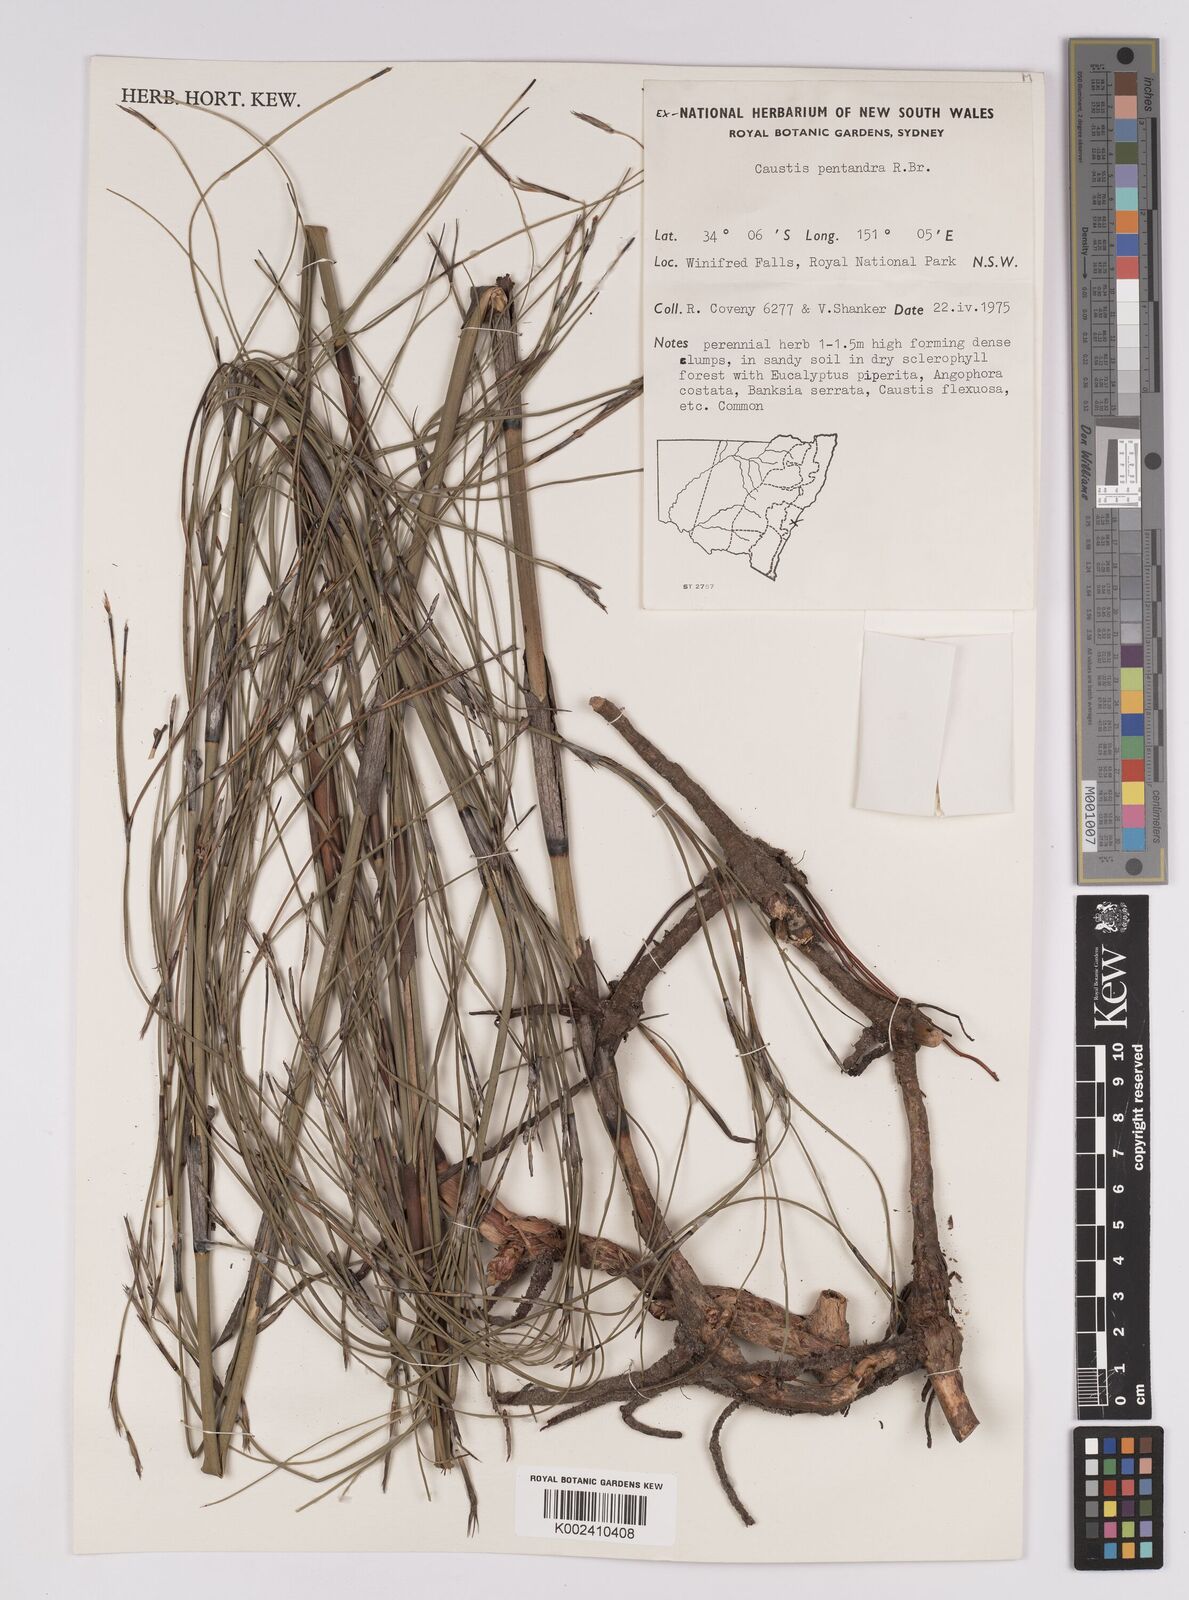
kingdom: Plantae
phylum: Tracheophyta
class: Liliopsida
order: Poales
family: Cyperaceae
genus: Caustis
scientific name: Caustis pentandra
